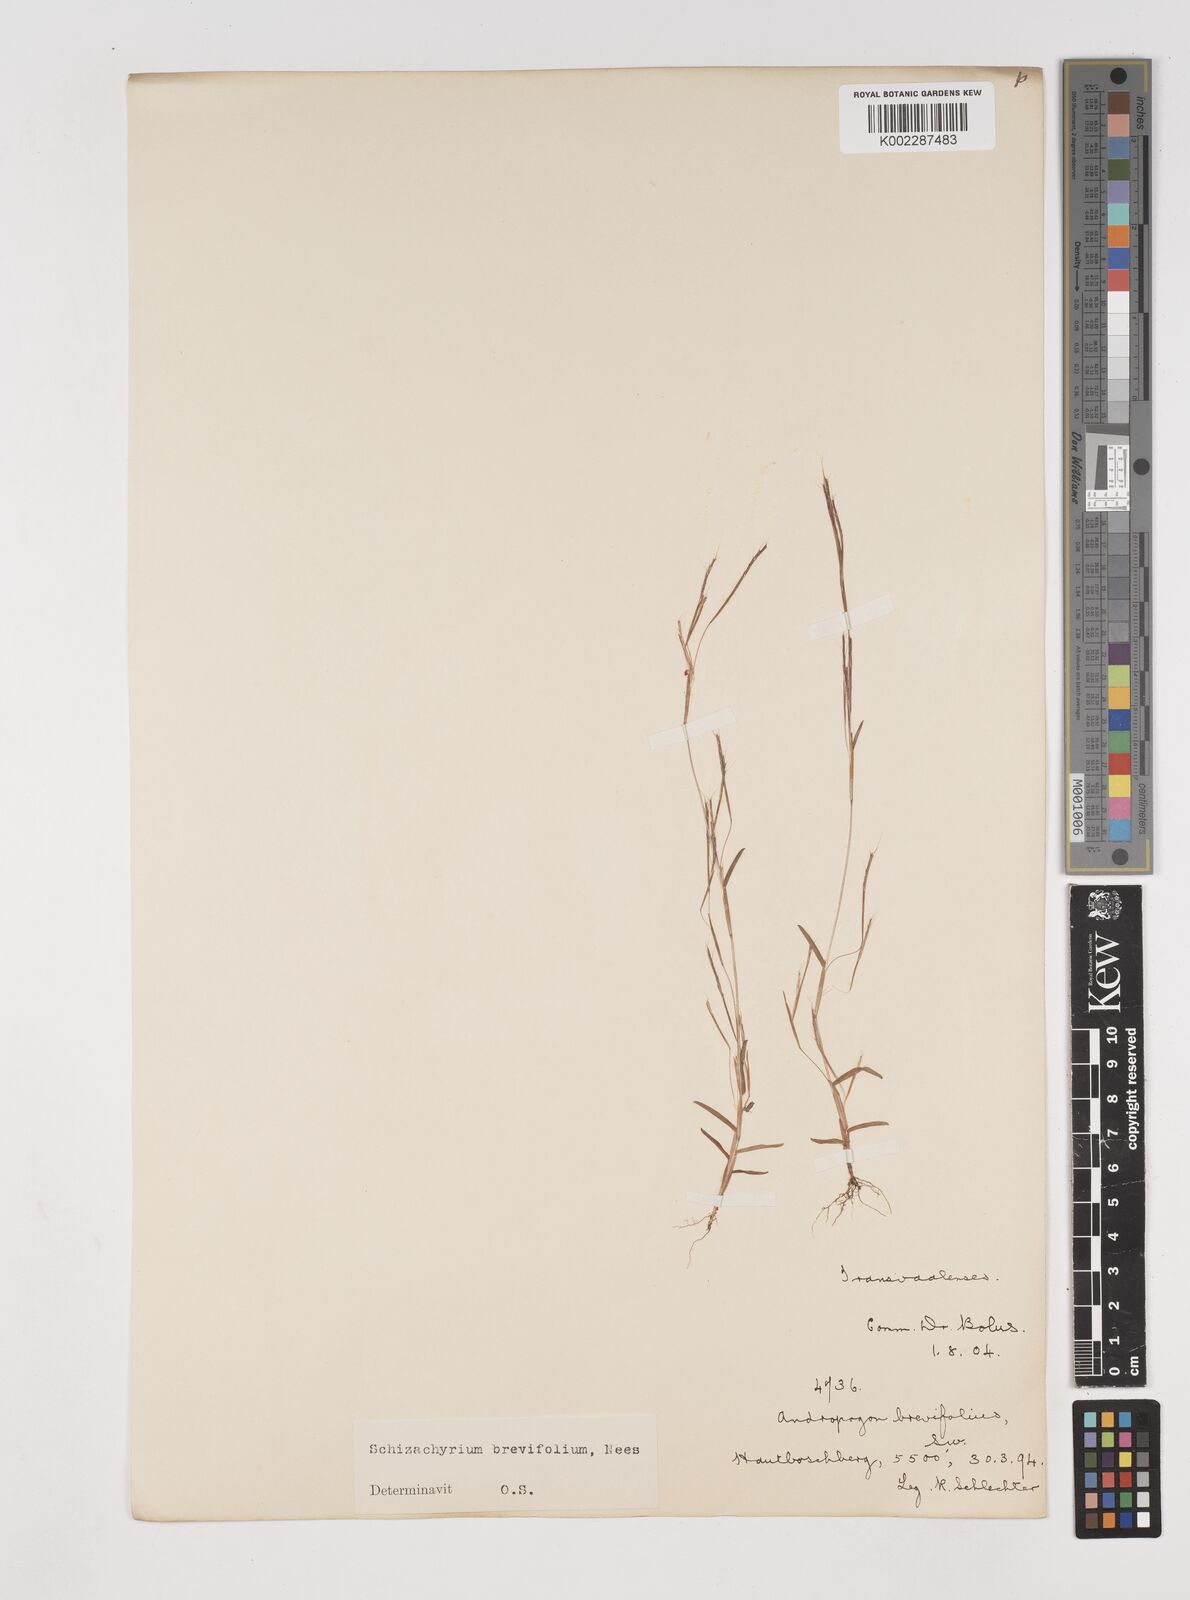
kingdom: Plantae
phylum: Tracheophyta
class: Liliopsida
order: Poales
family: Poaceae
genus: Schizachyrium
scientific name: Schizachyrium brevifolium
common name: Serillo dulce
